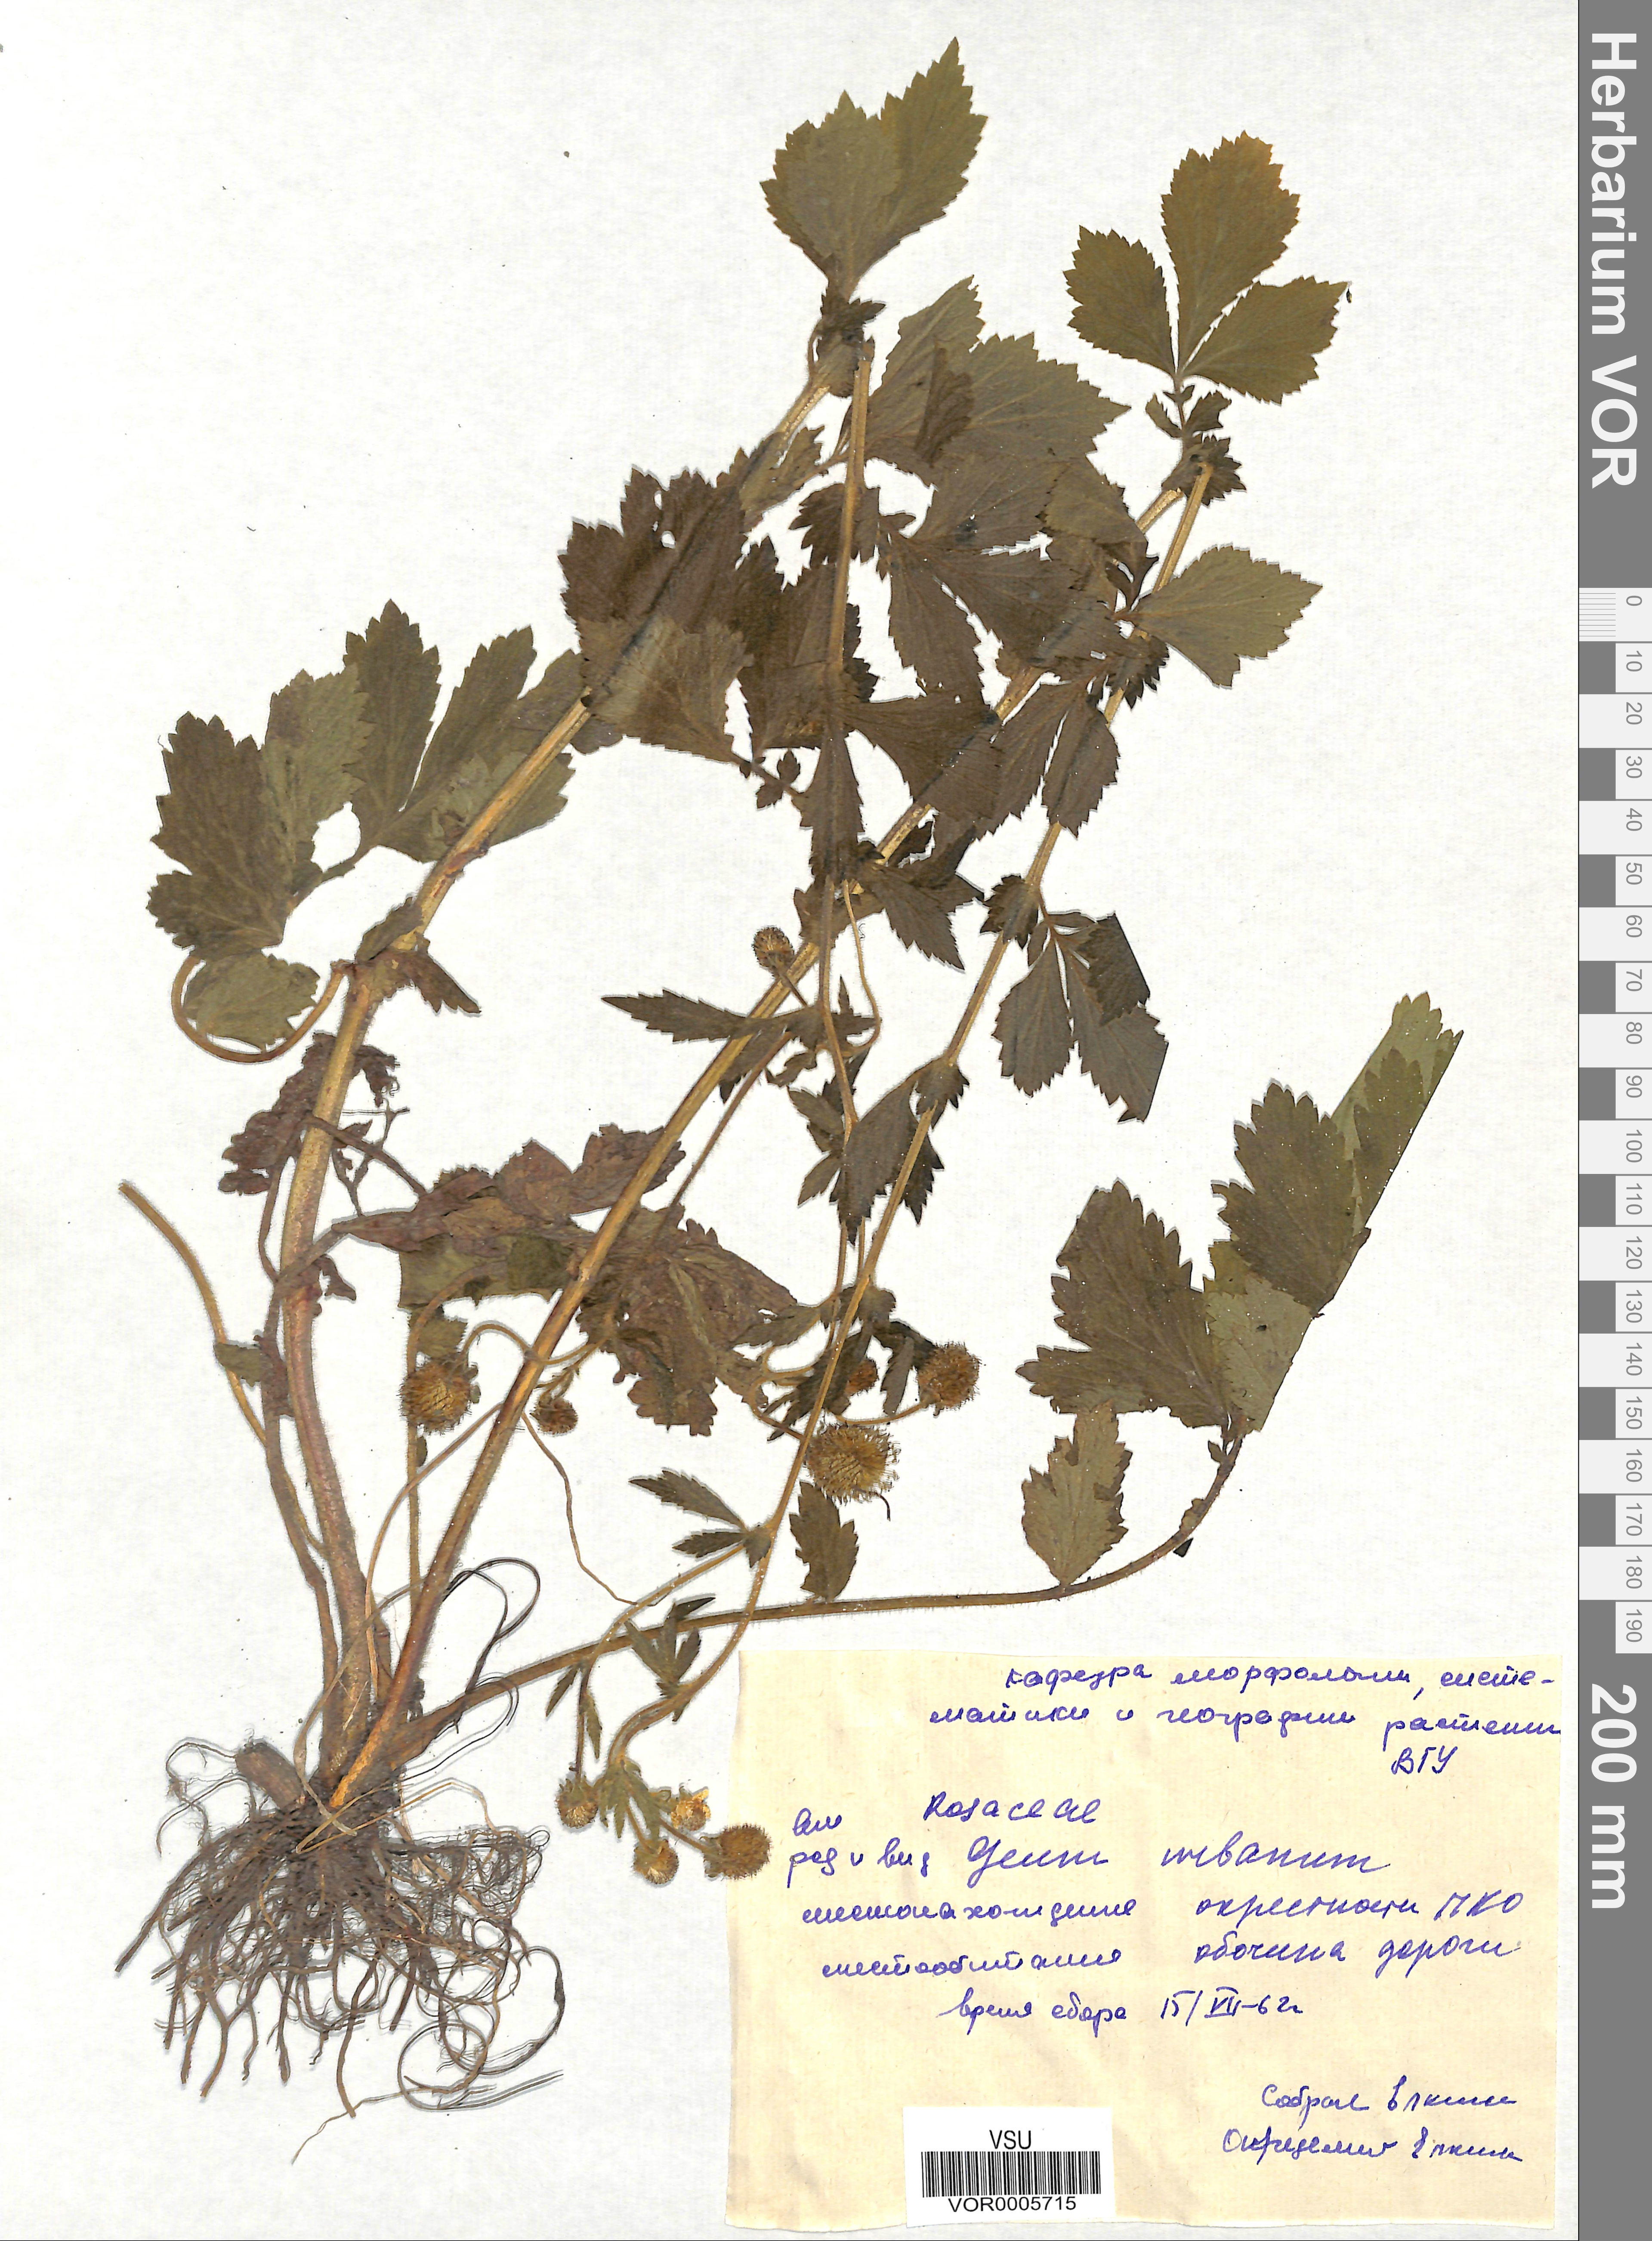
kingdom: Plantae
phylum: Tracheophyta
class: Magnoliopsida
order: Rosales
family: Rosaceae
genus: Geum
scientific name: Geum urbanum
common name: Wood avens
